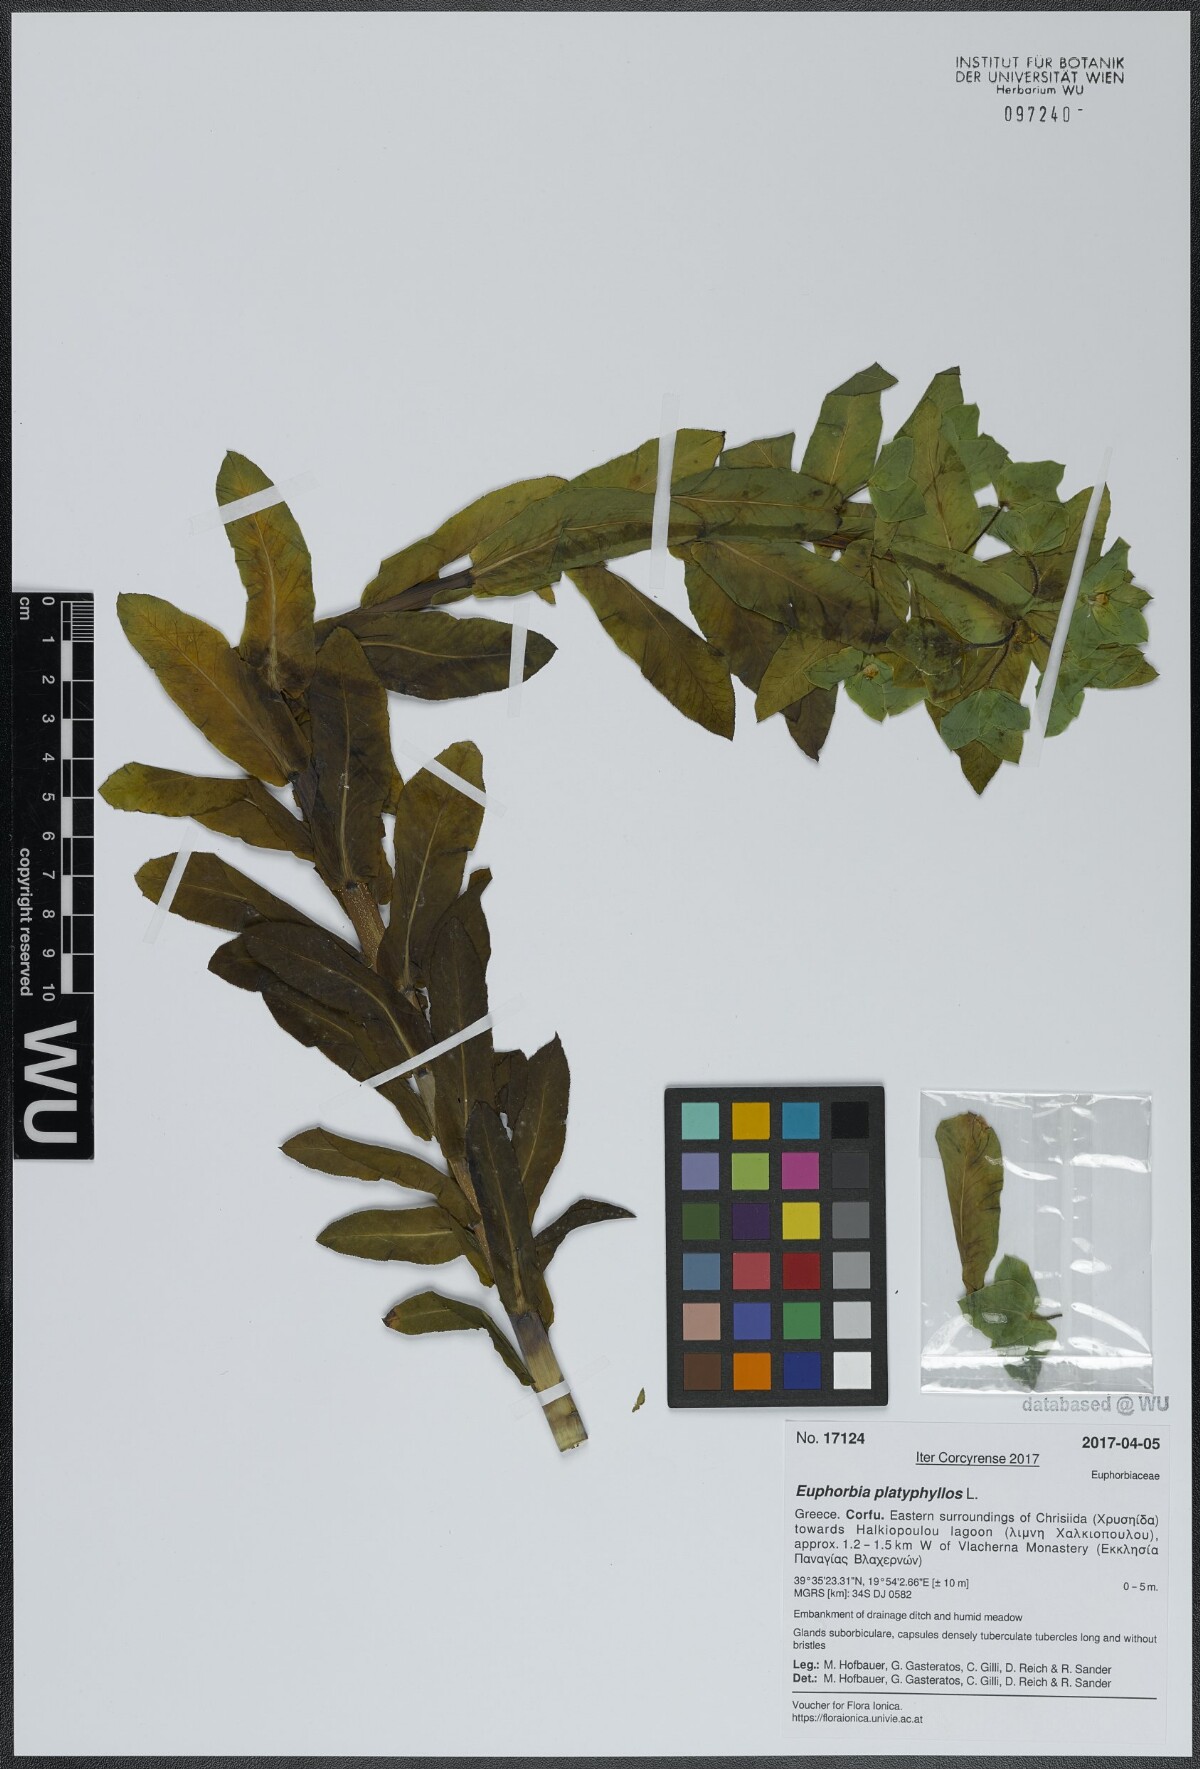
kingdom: Plantae
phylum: Tracheophyta
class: Magnoliopsida
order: Malpighiales
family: Euphorbiaceae
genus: Euphorbia
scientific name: Euphorbia platyphyllos
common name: Broad-leaved spurge
